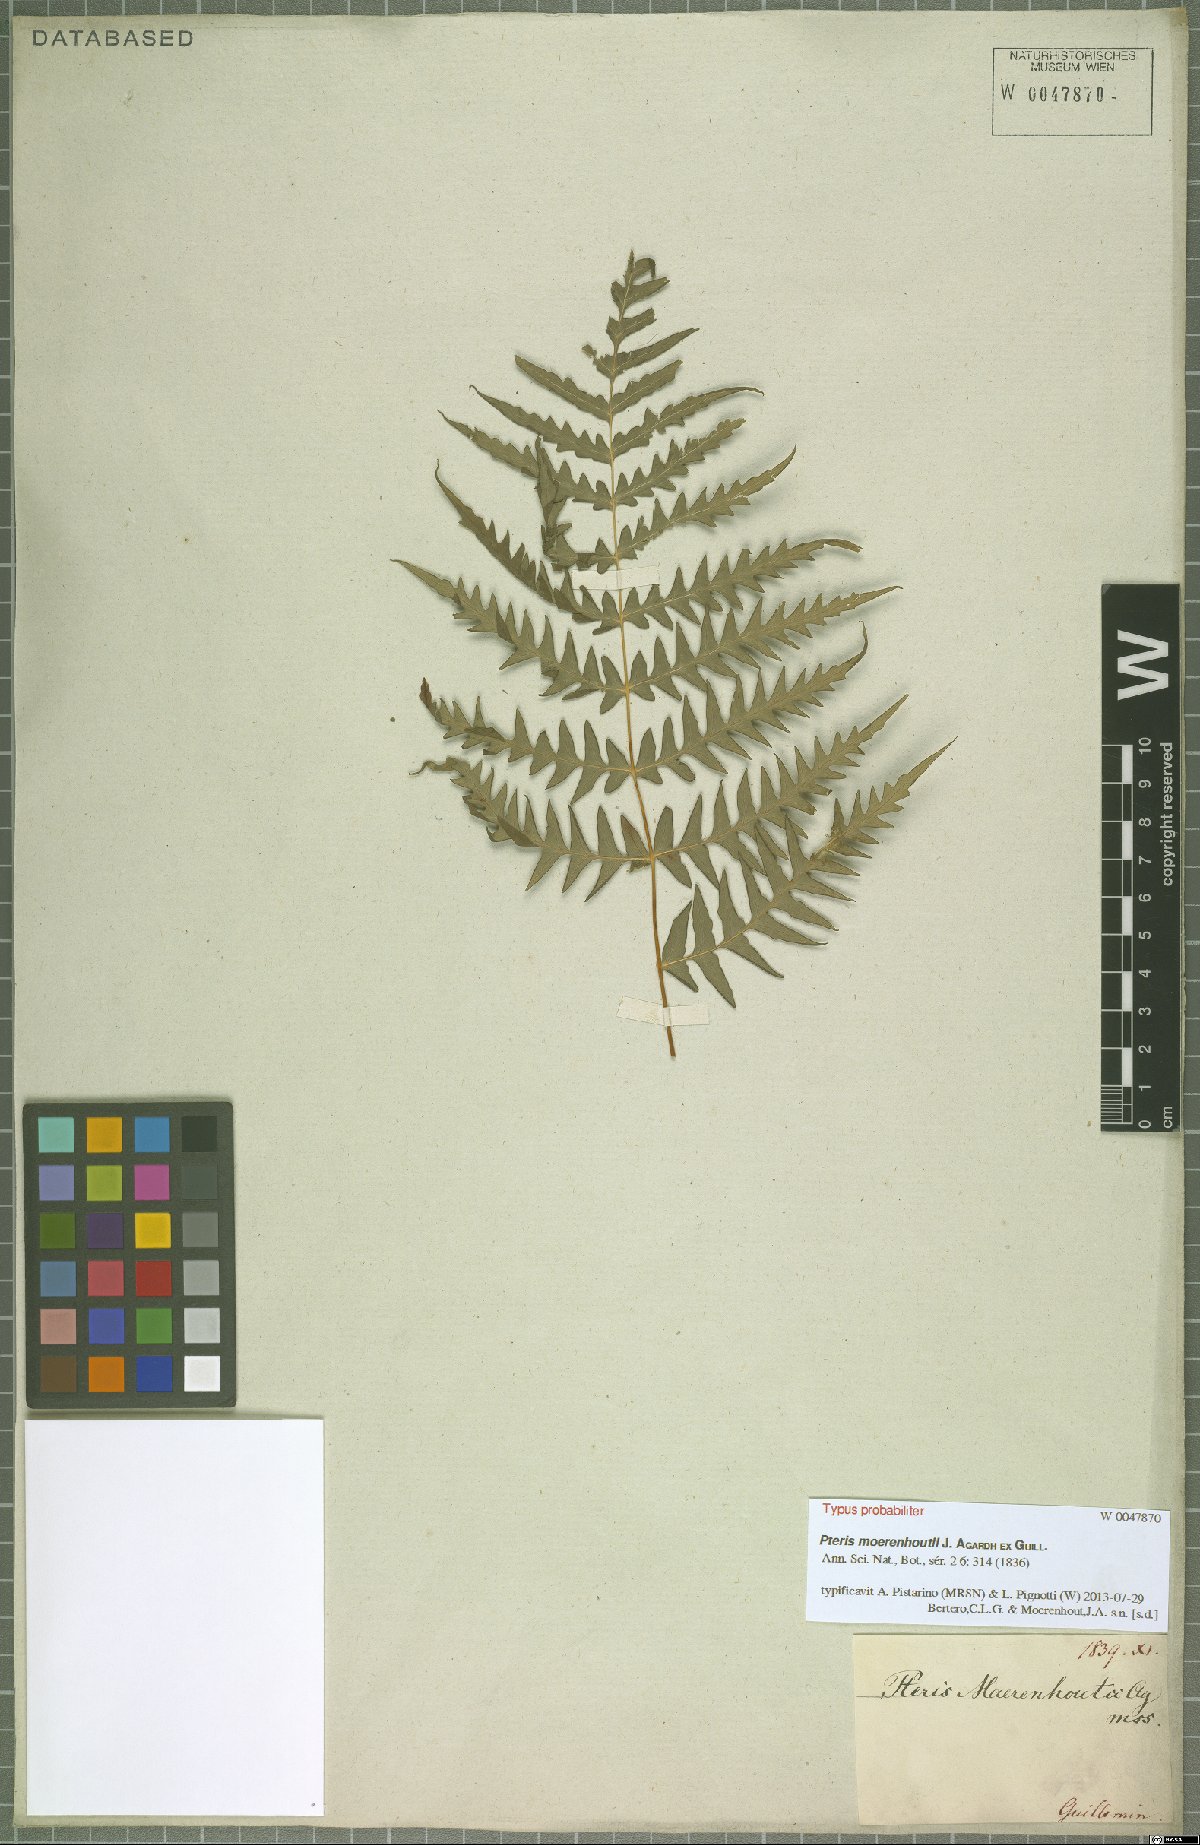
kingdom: Plantae
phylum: Tracheophyta
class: Polypodiopsida
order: Polypodiales
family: Dennstaedtiaceae
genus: Histiopteris
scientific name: Histiopteris incisa
